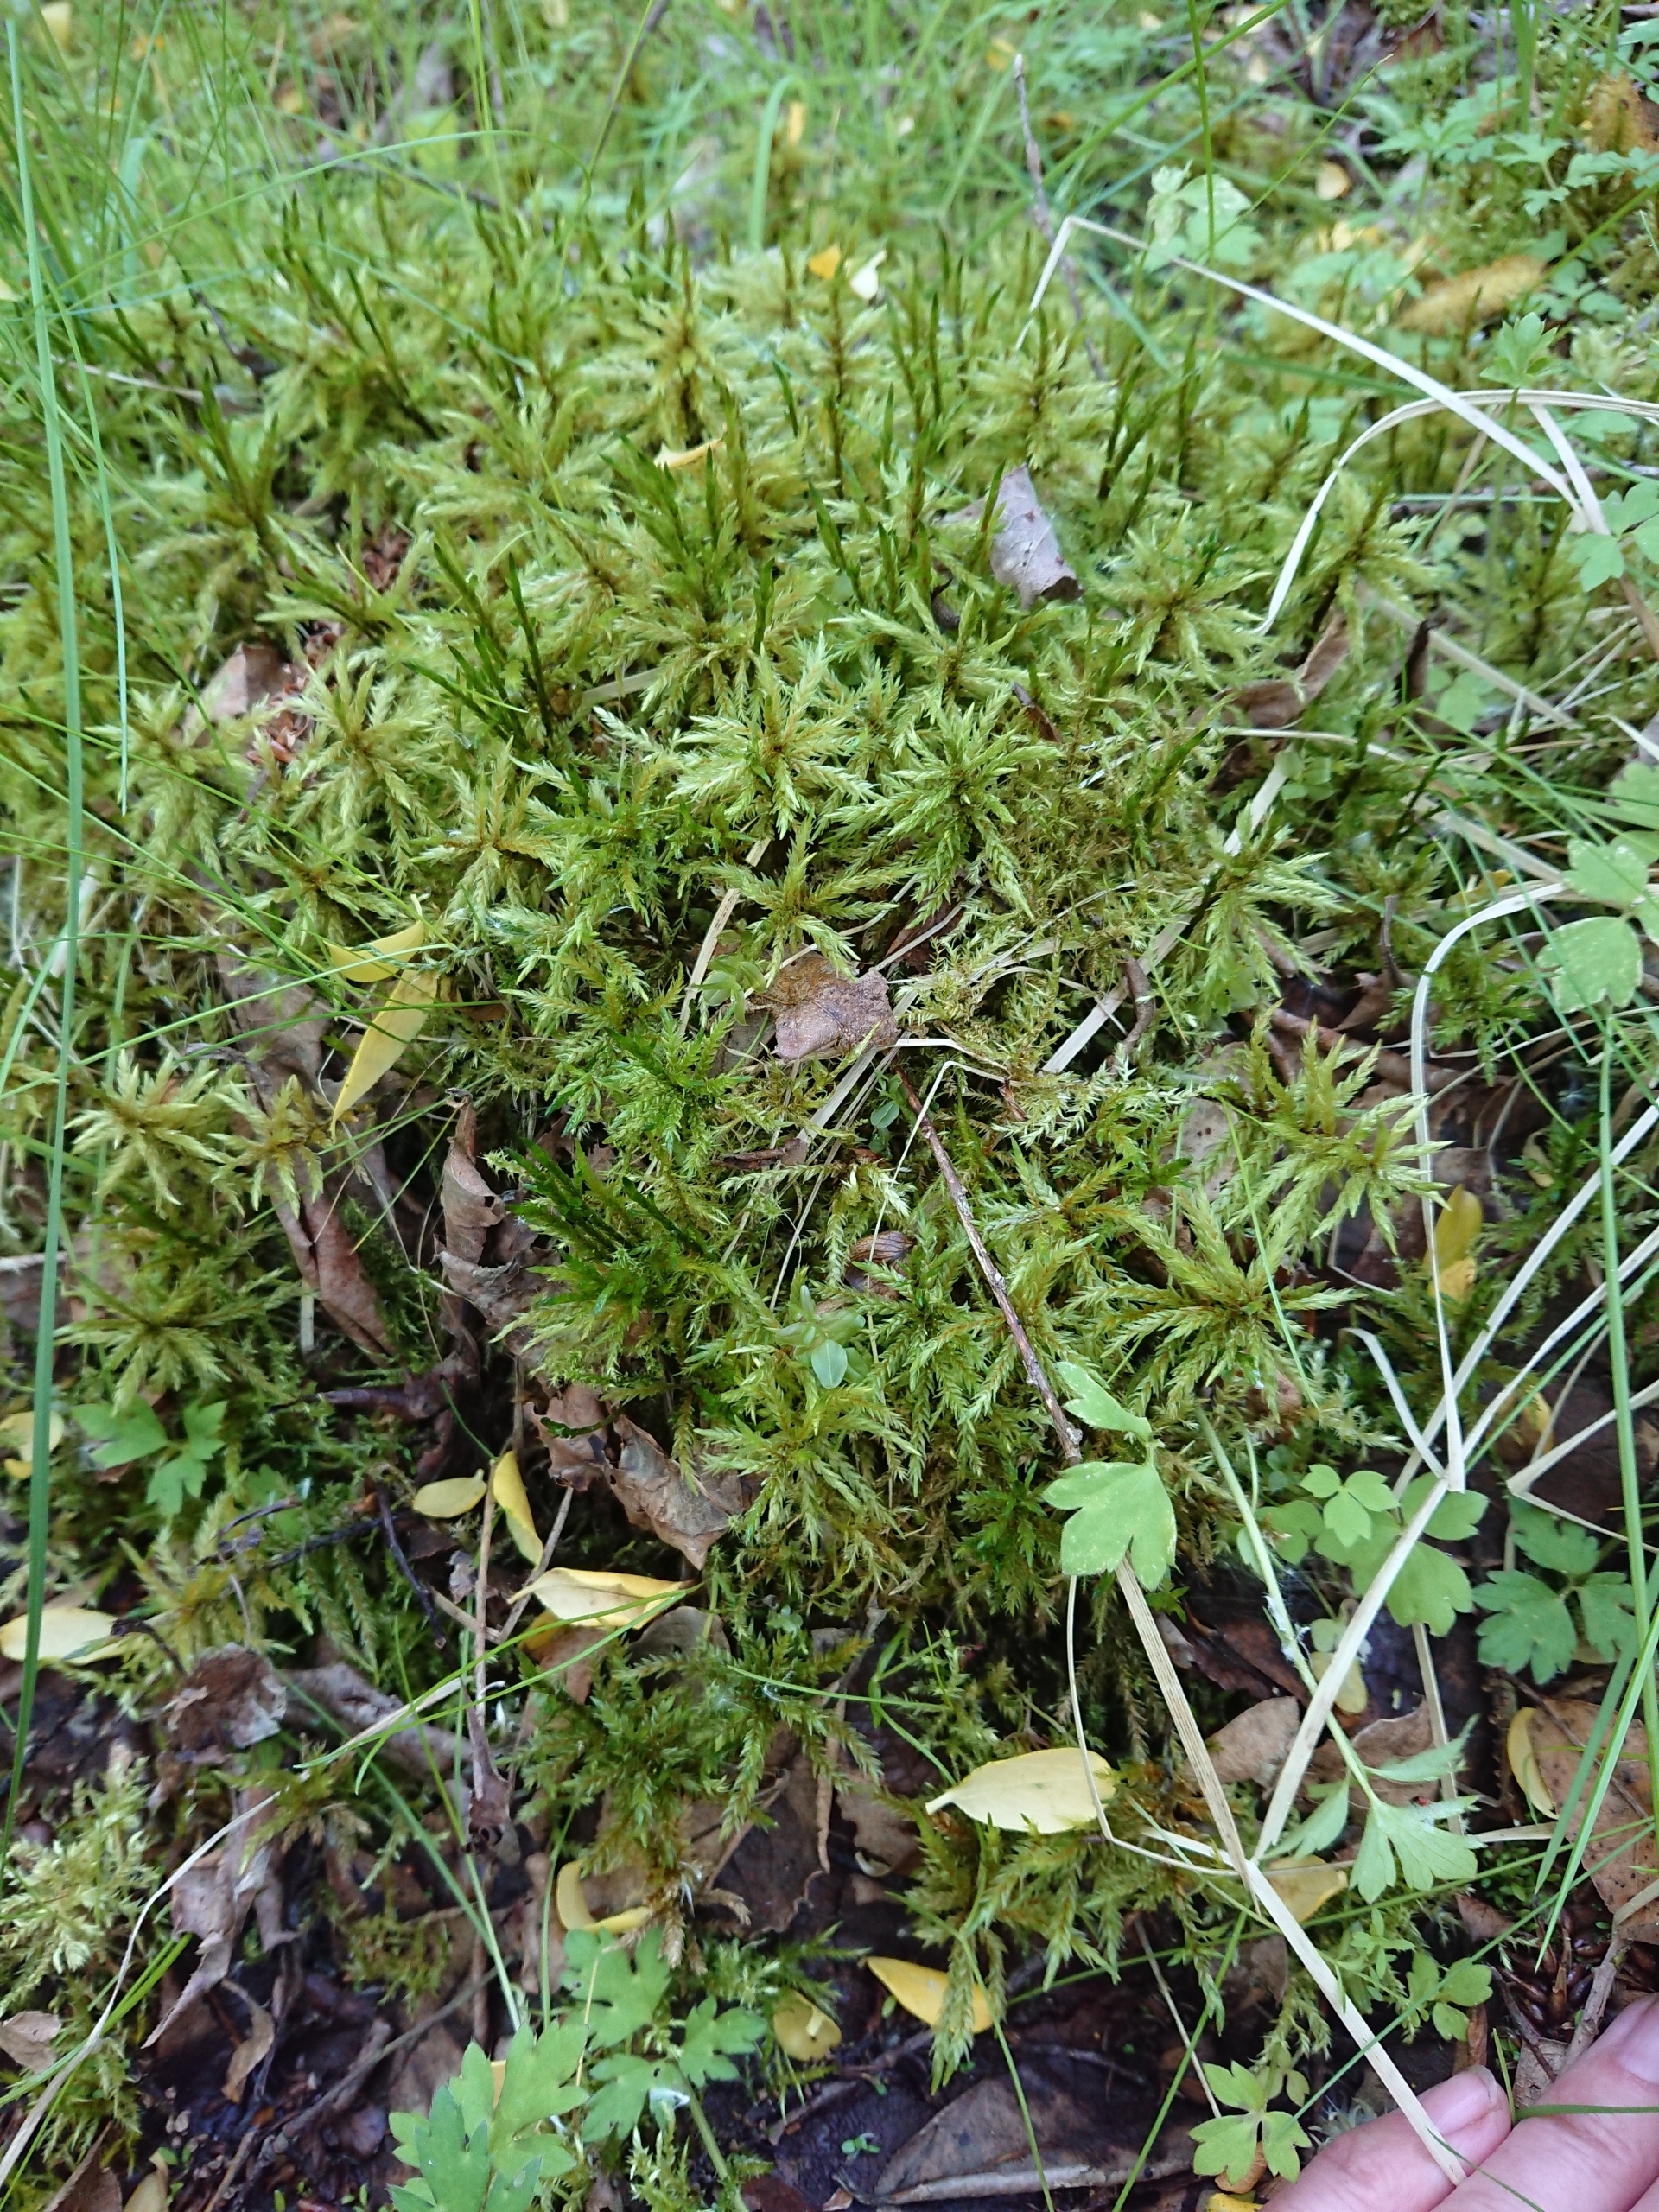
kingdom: Plantae
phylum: Bryophyta
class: Bryopsida
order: Hypnales
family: Climaciaceae
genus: Climacium
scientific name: Climacium dendroides
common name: Stor engkost
